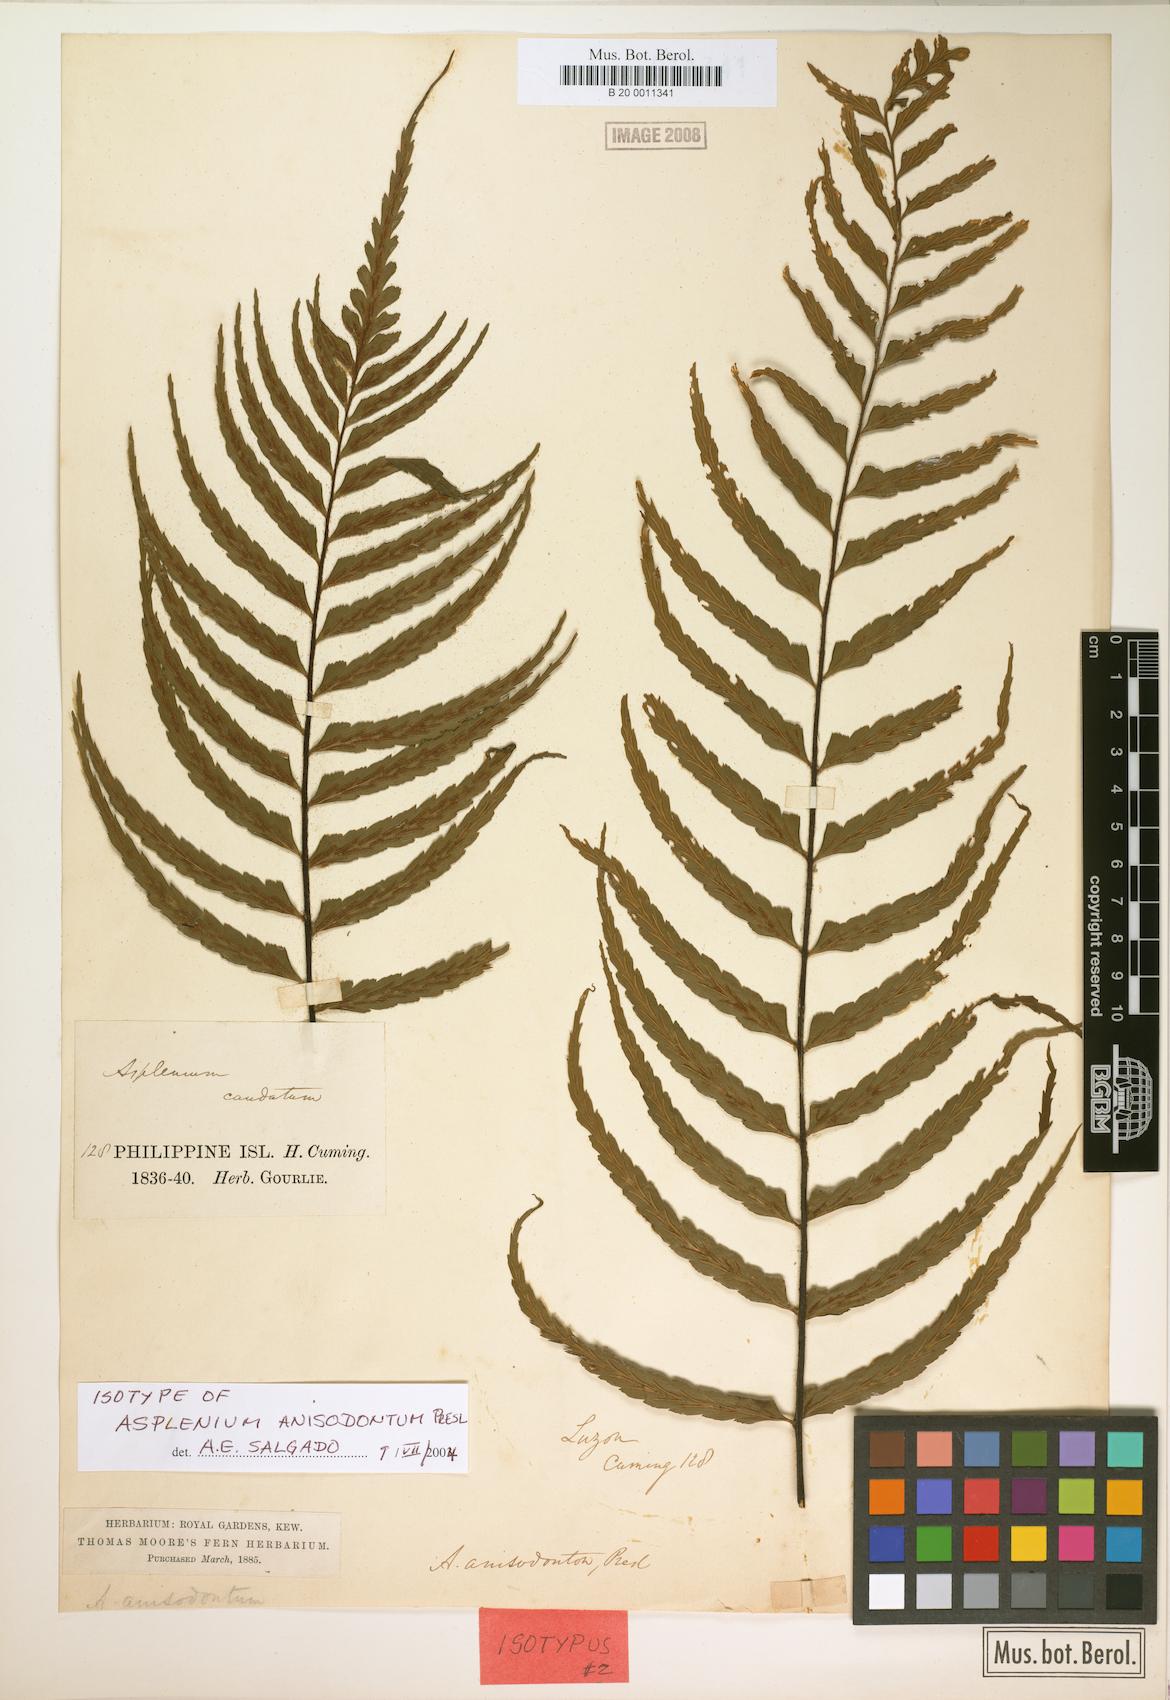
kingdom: Plantae
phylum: Tracheophyta
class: Polypodiopsida
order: Polypodiales
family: Aspleniaceae
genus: Asplenium
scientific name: Asplenium longissimum
